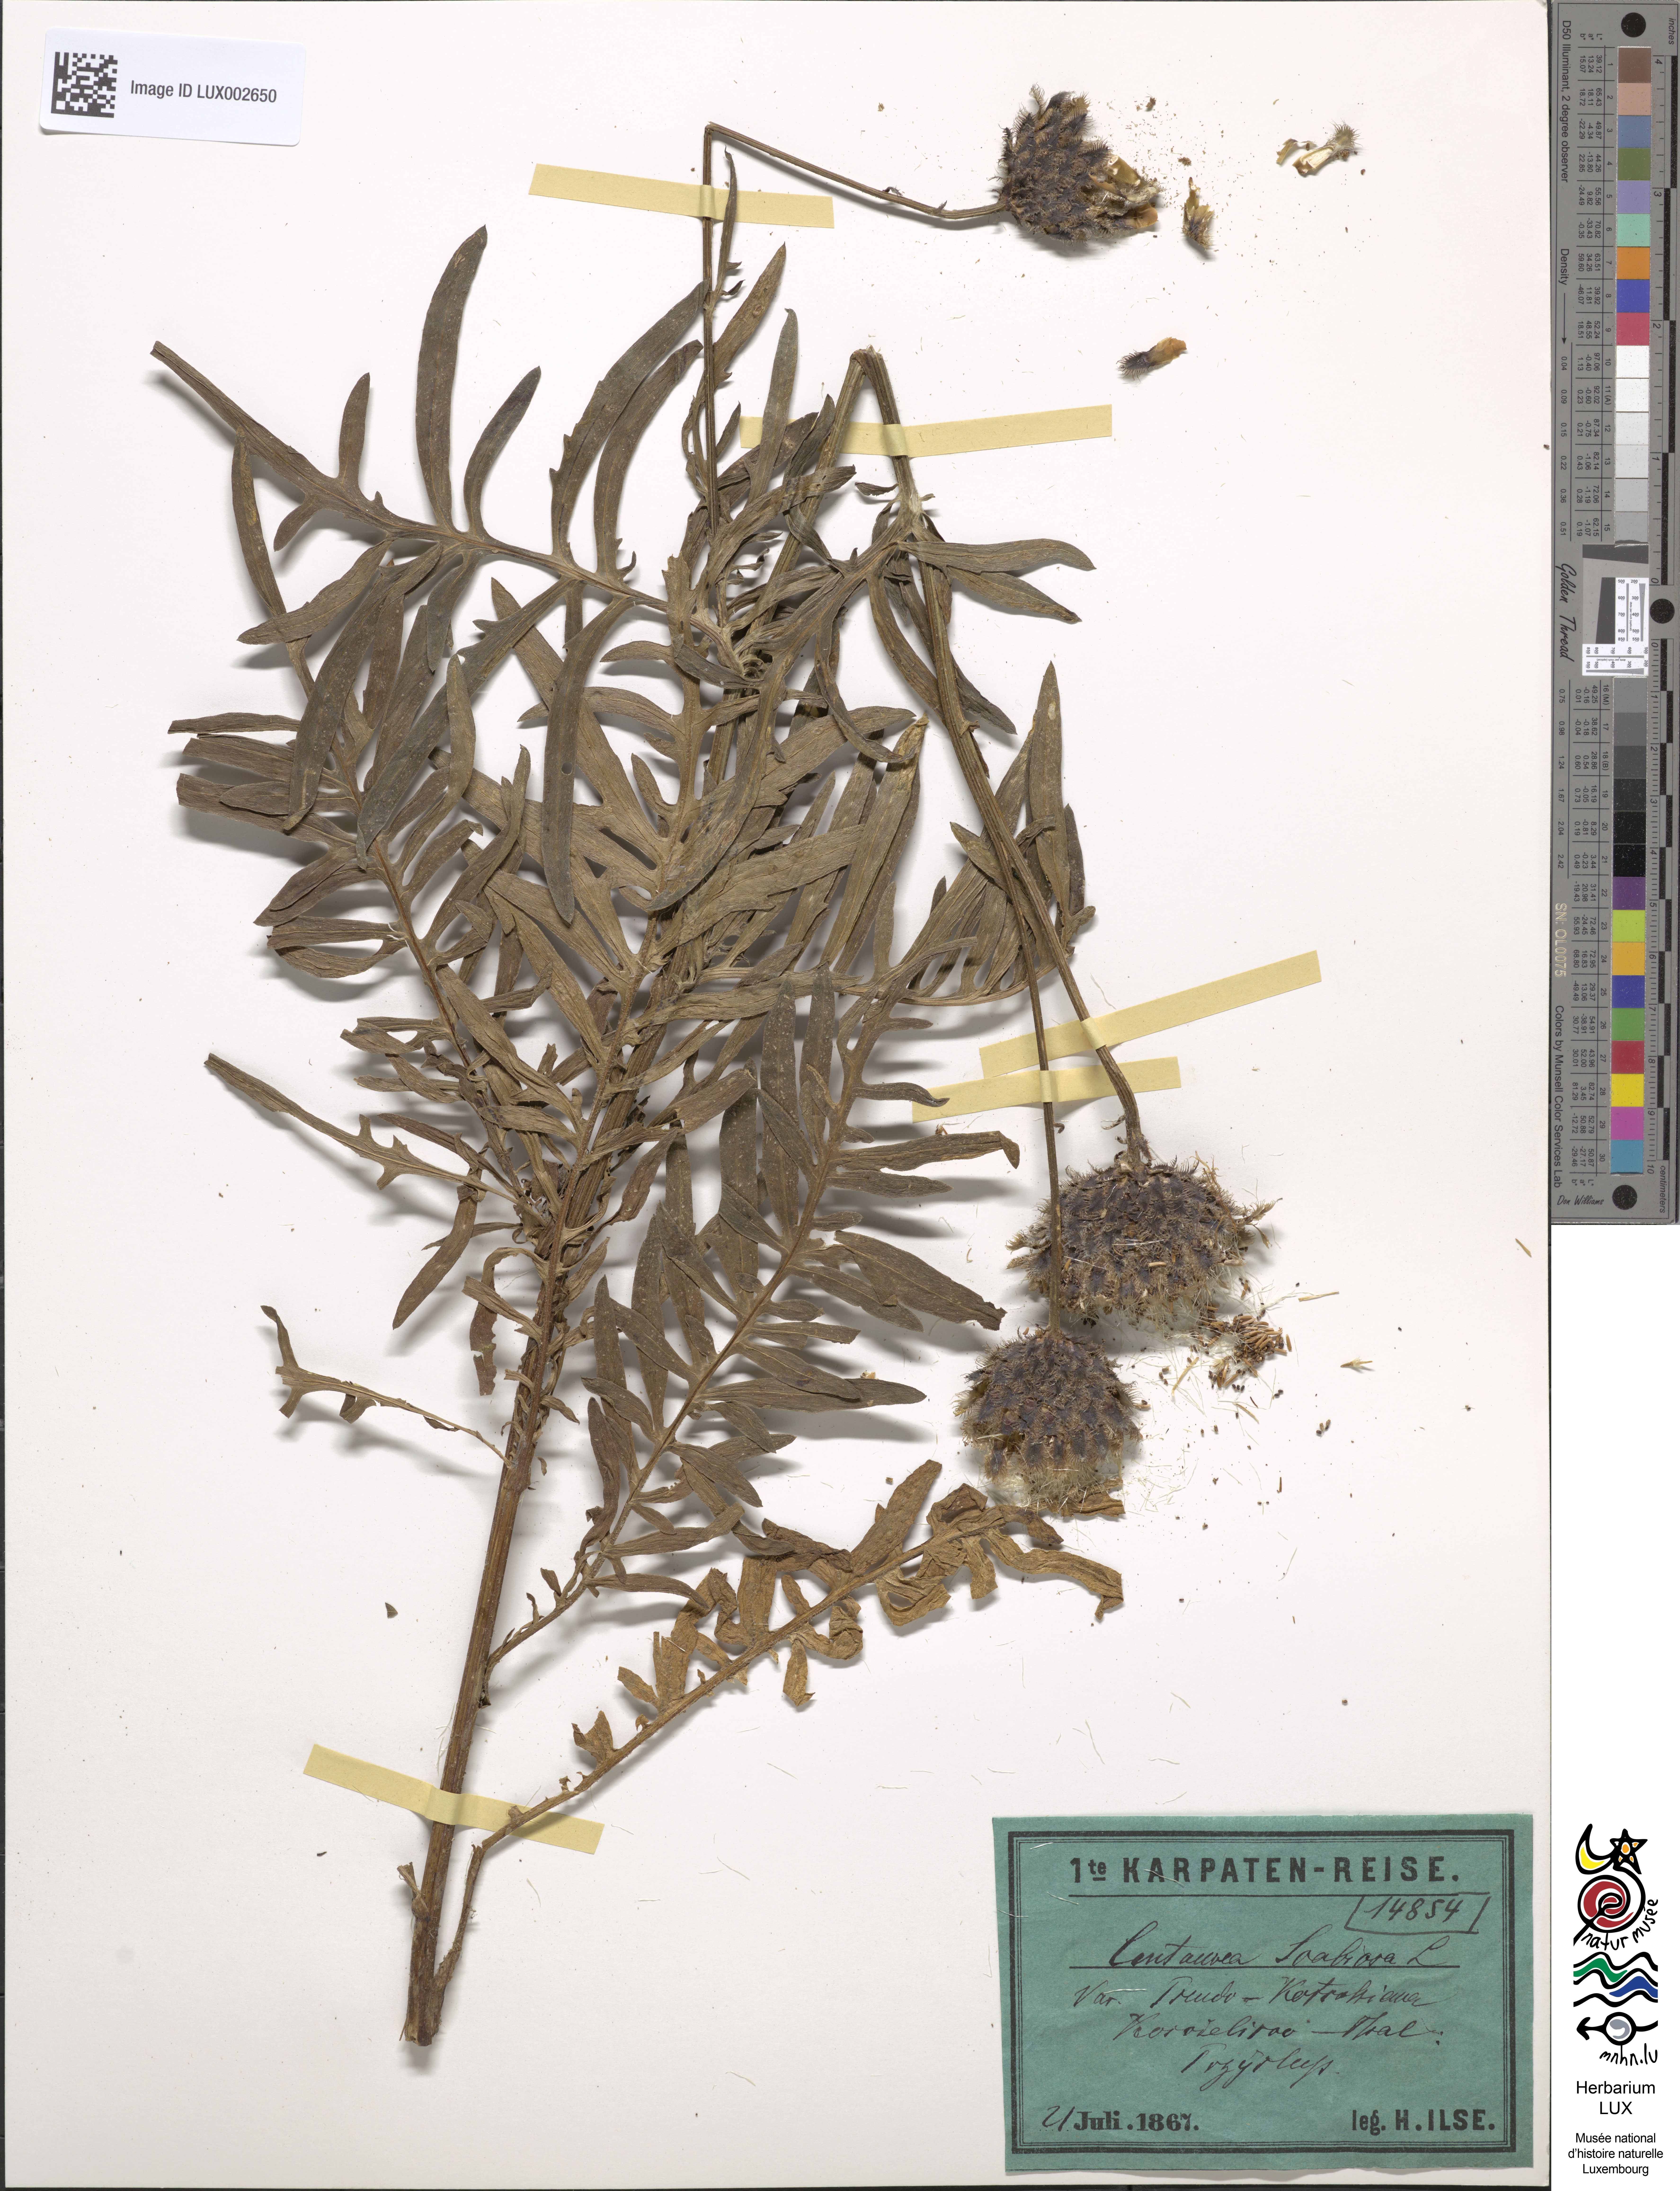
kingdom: Plantae
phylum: Tracheophyta
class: Magnoliopsida
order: Asterales
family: Asteraceae
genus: Centaurea
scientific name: Centaurea scabiosa
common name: Greater knapweed
